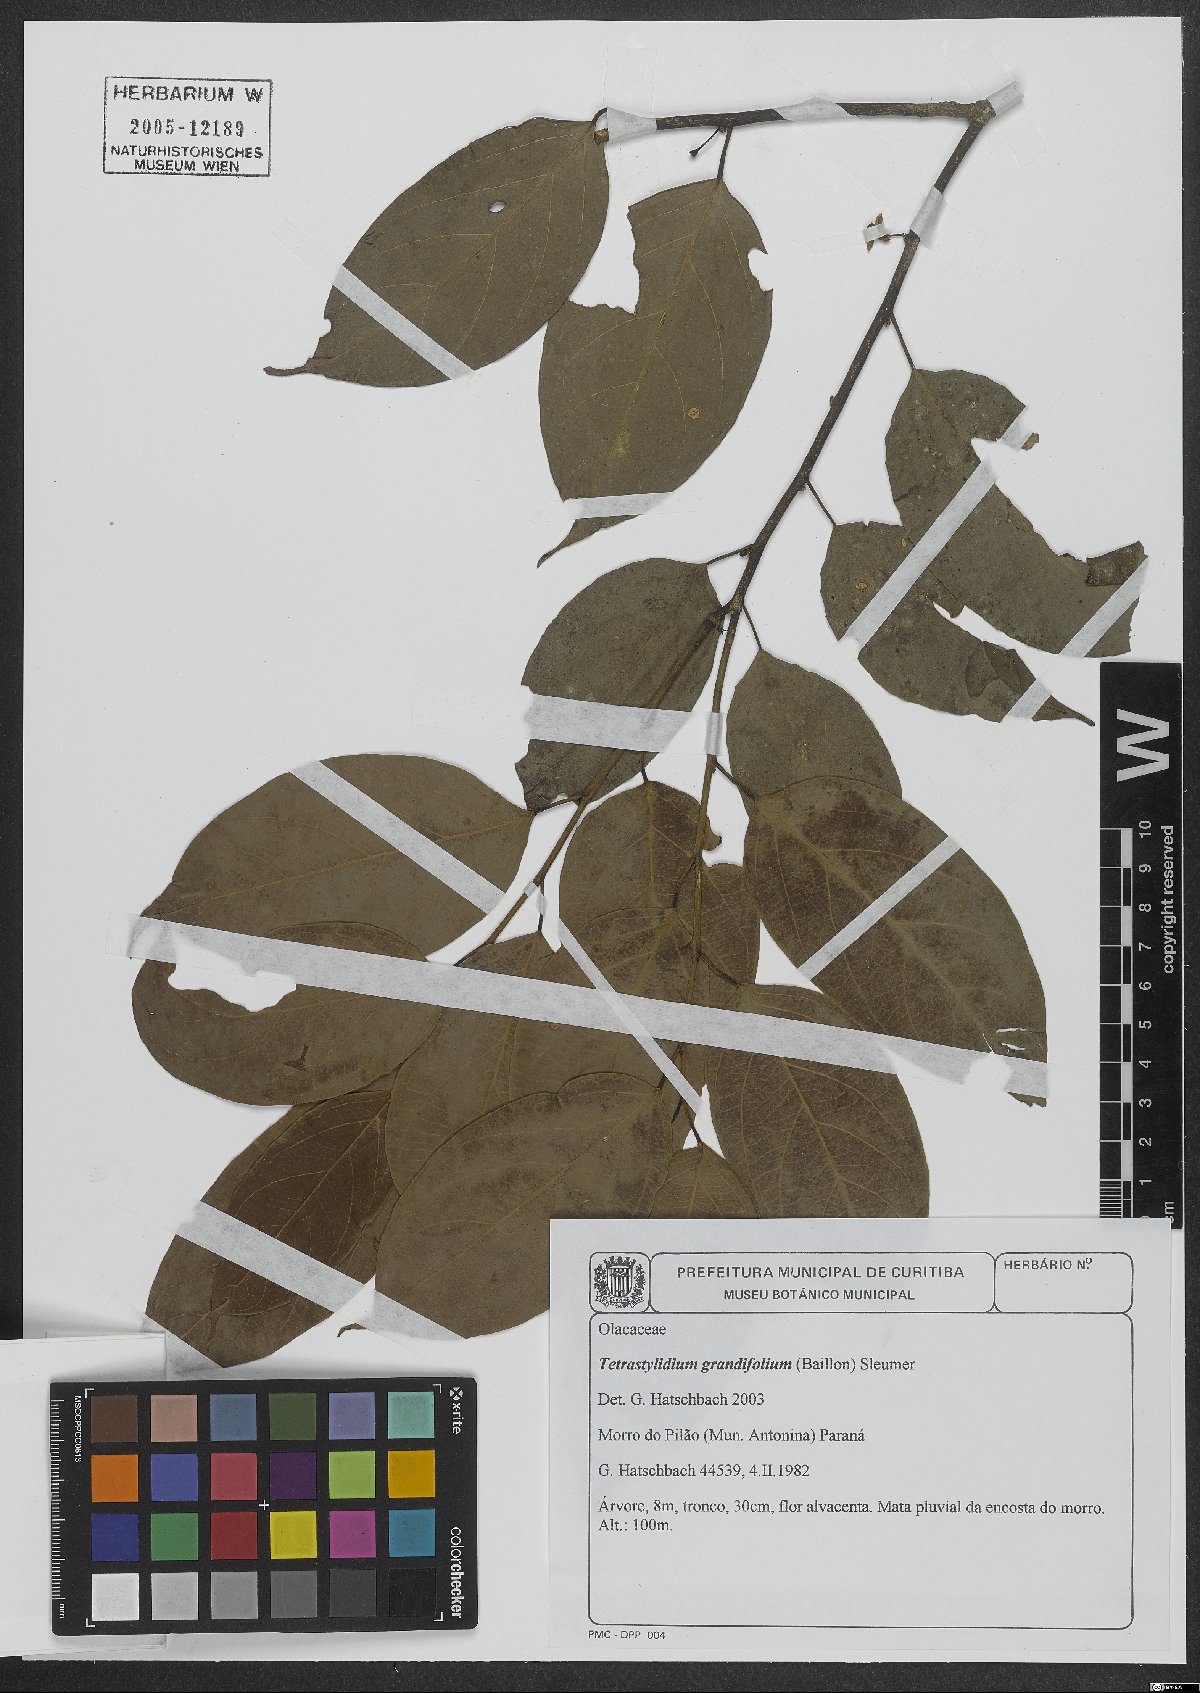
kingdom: Plantae
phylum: Tracheophyta
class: Magnoliopsida
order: Santalales
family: Strombosiaceae
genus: Tetrastylidium
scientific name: Tetrastylidium grandifolium
